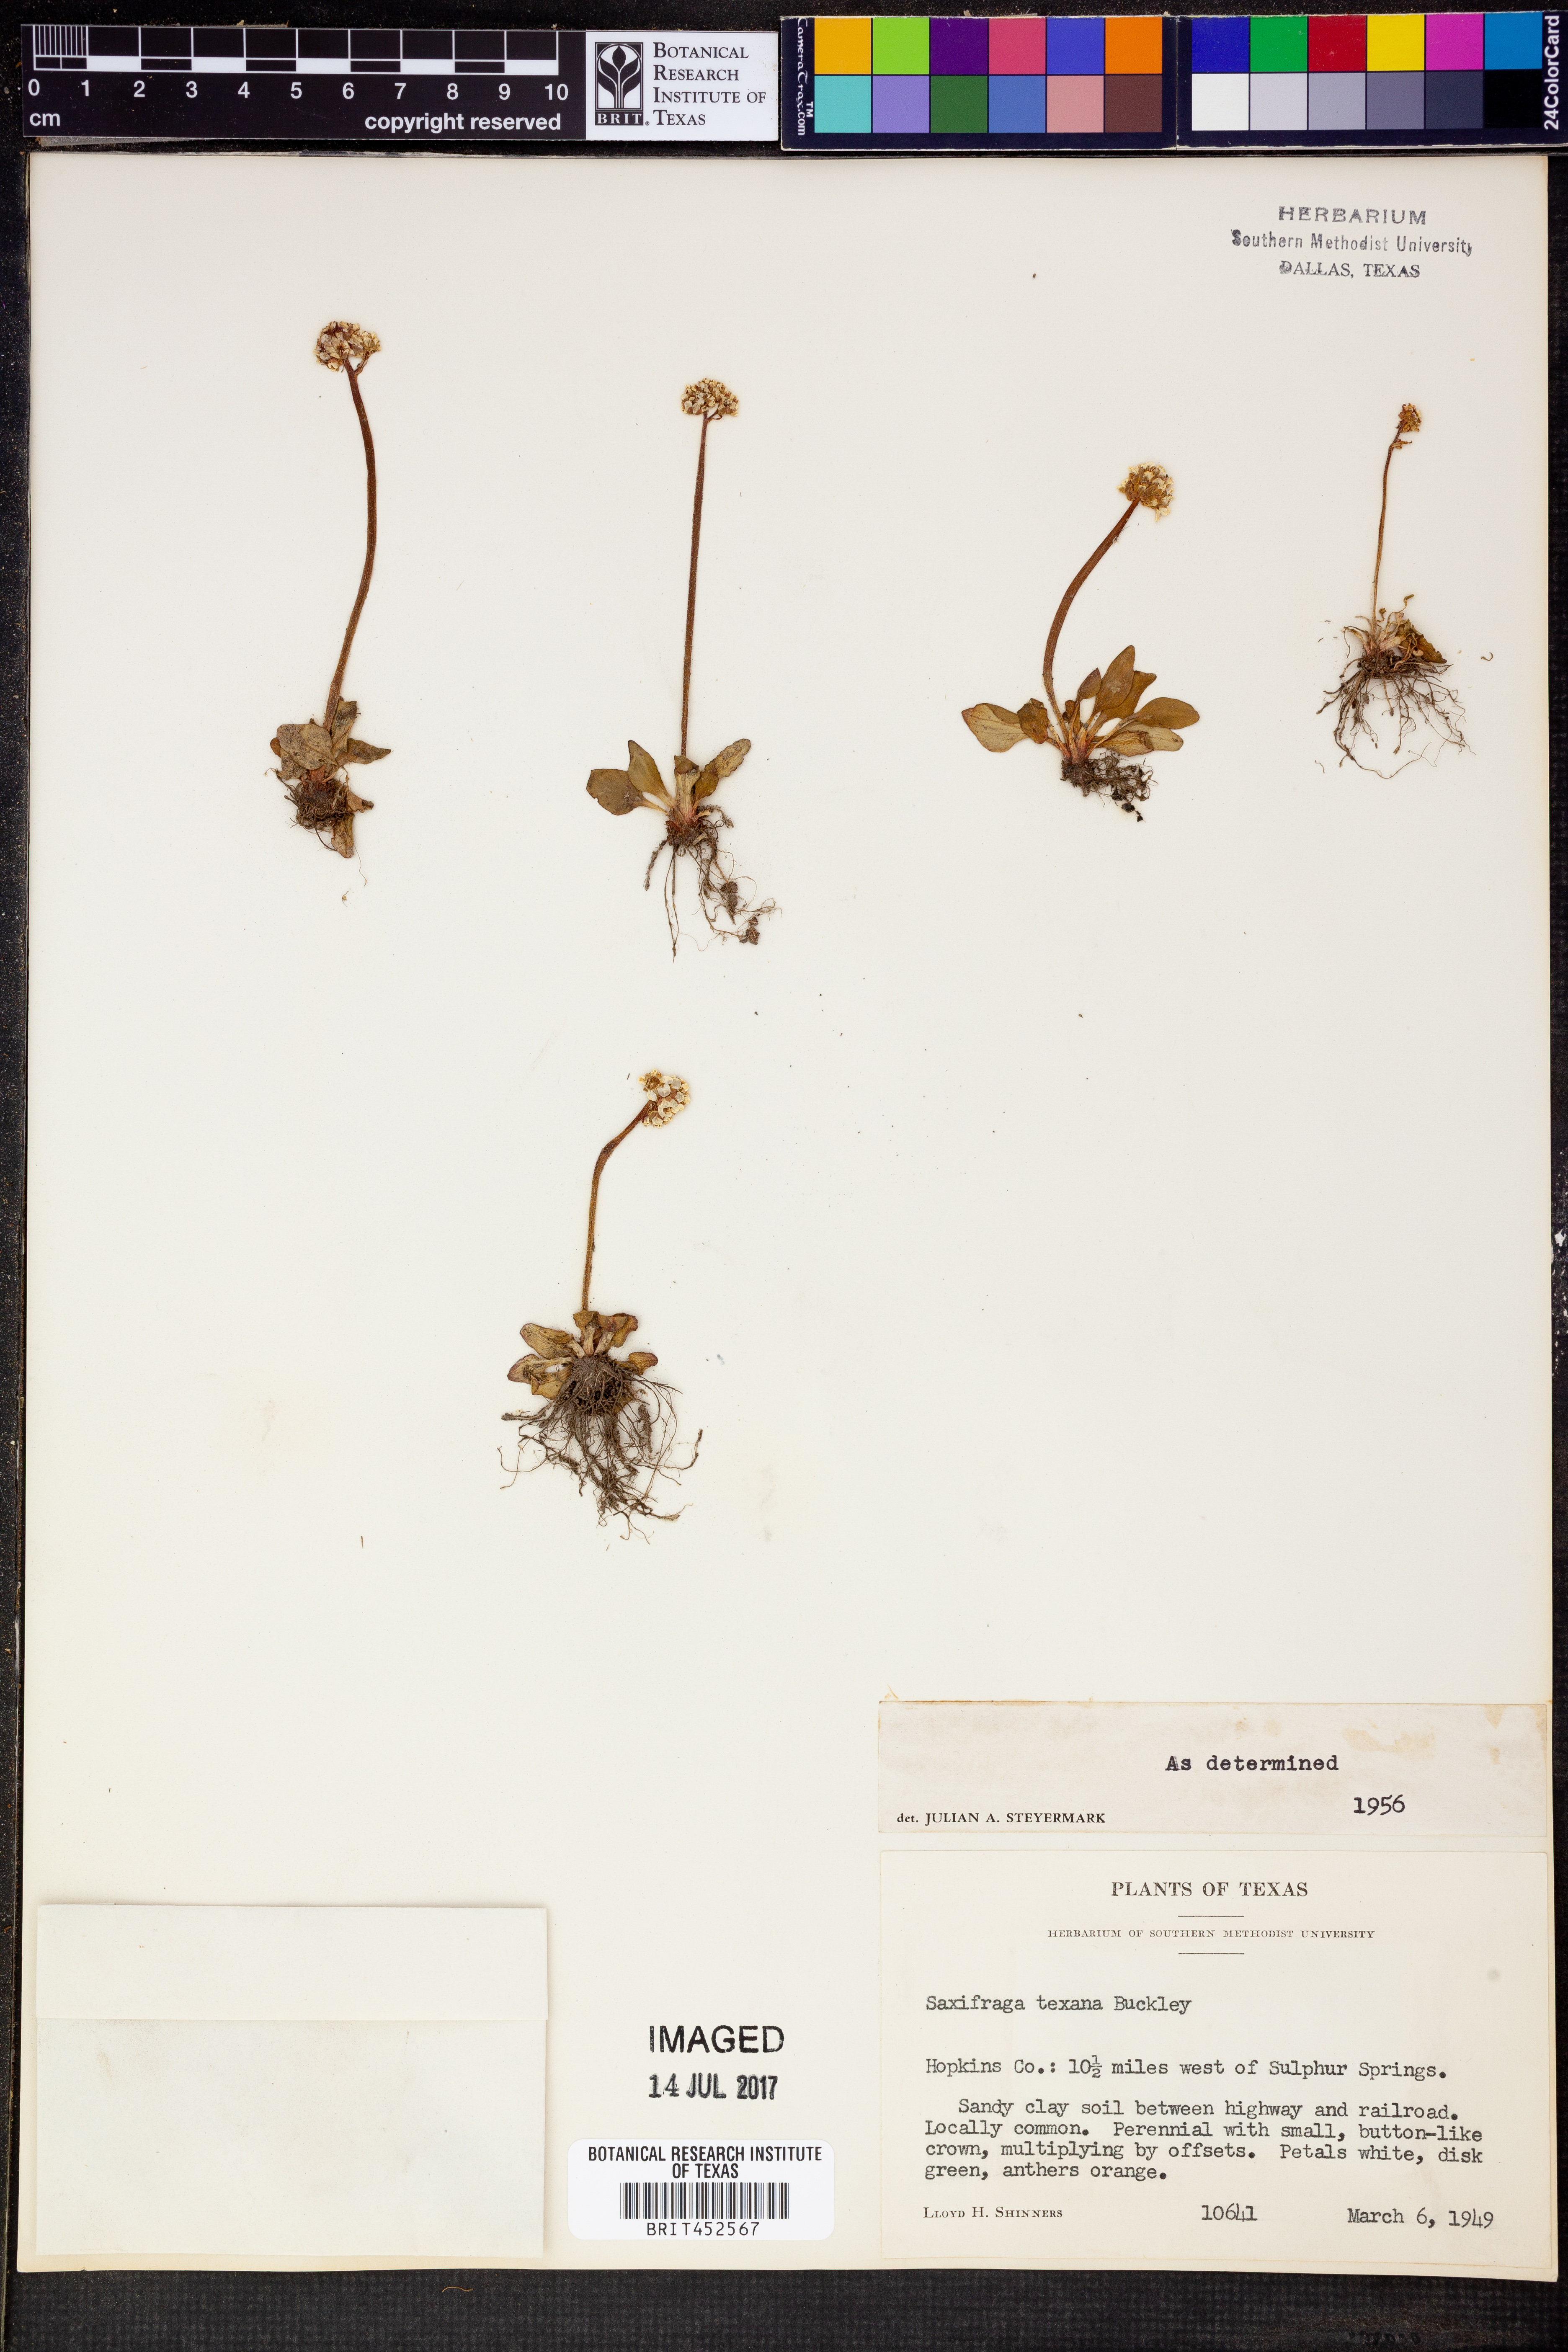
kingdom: Plantae
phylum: Tracheophyta
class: Magnoliopsida
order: Saxifragales
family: Saxifragaceae
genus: Micranthes
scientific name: Micranthes texana
